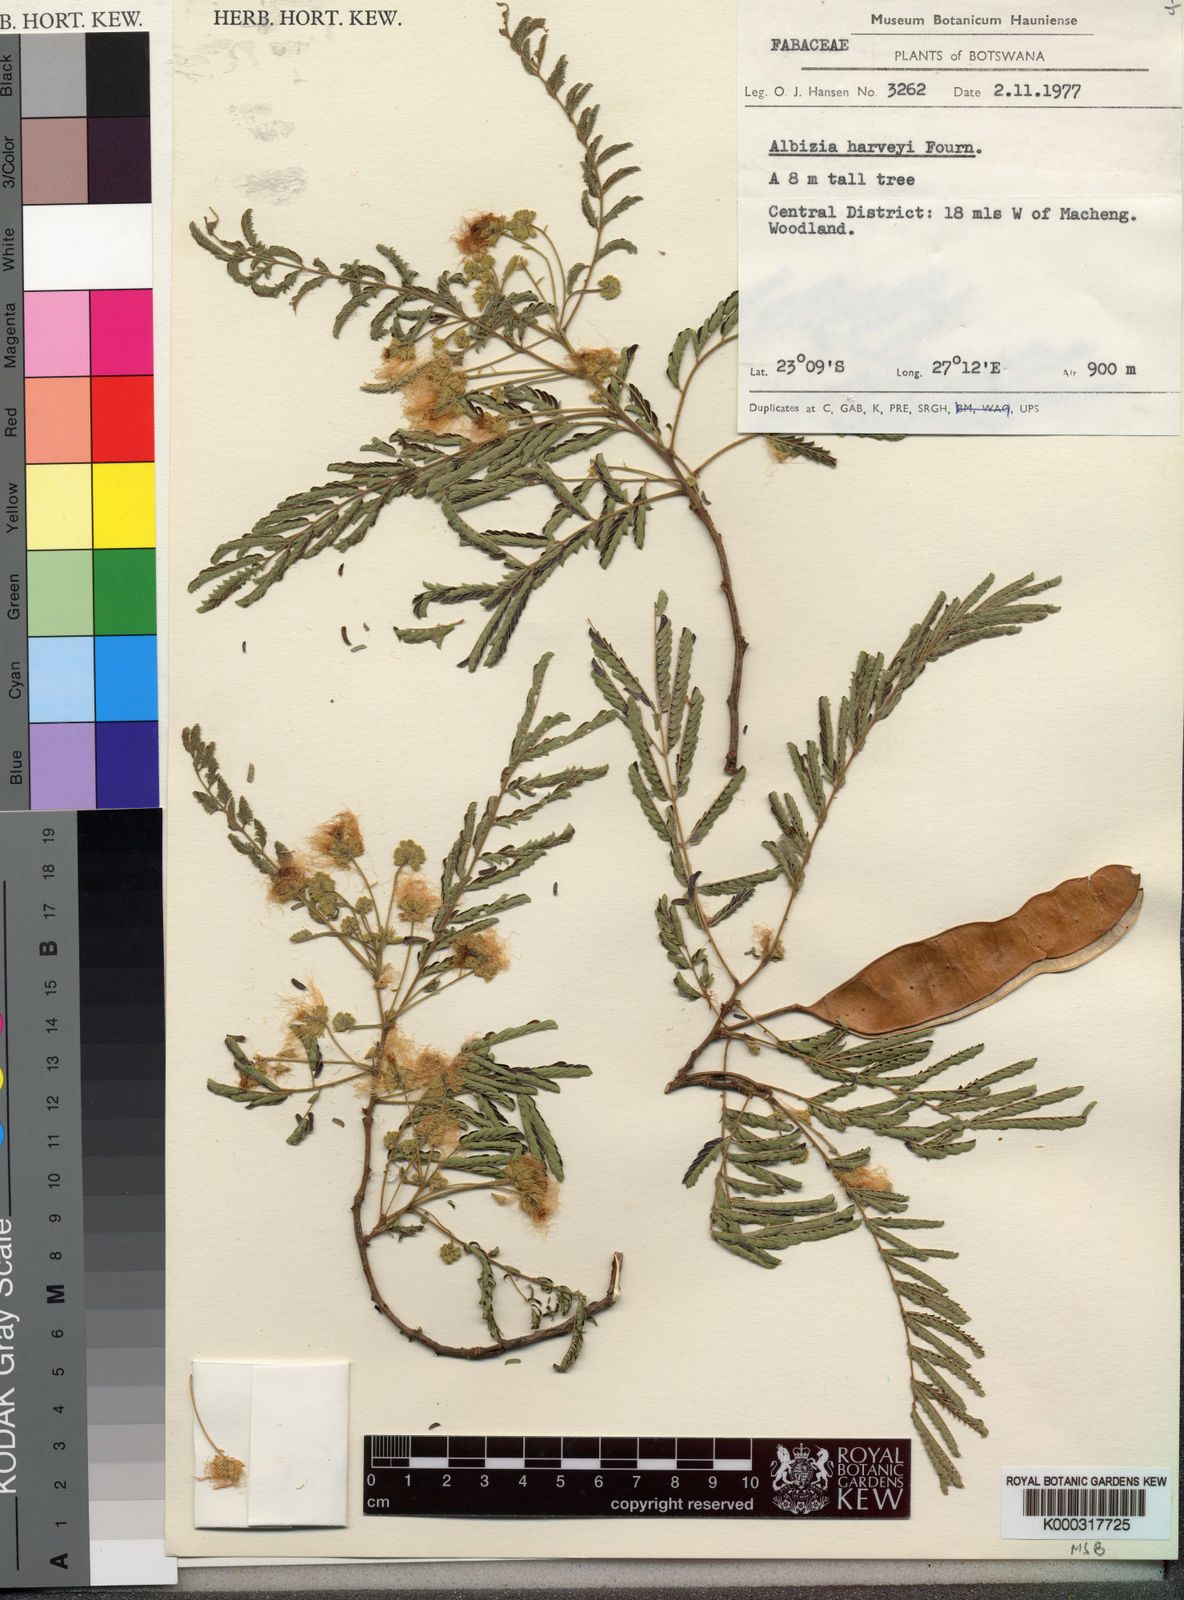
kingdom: Plantae
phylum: Tracheophyta
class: Magnoliopsida
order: Fabales
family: Fabaceae
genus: Albizia
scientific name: Albizia harveyi
